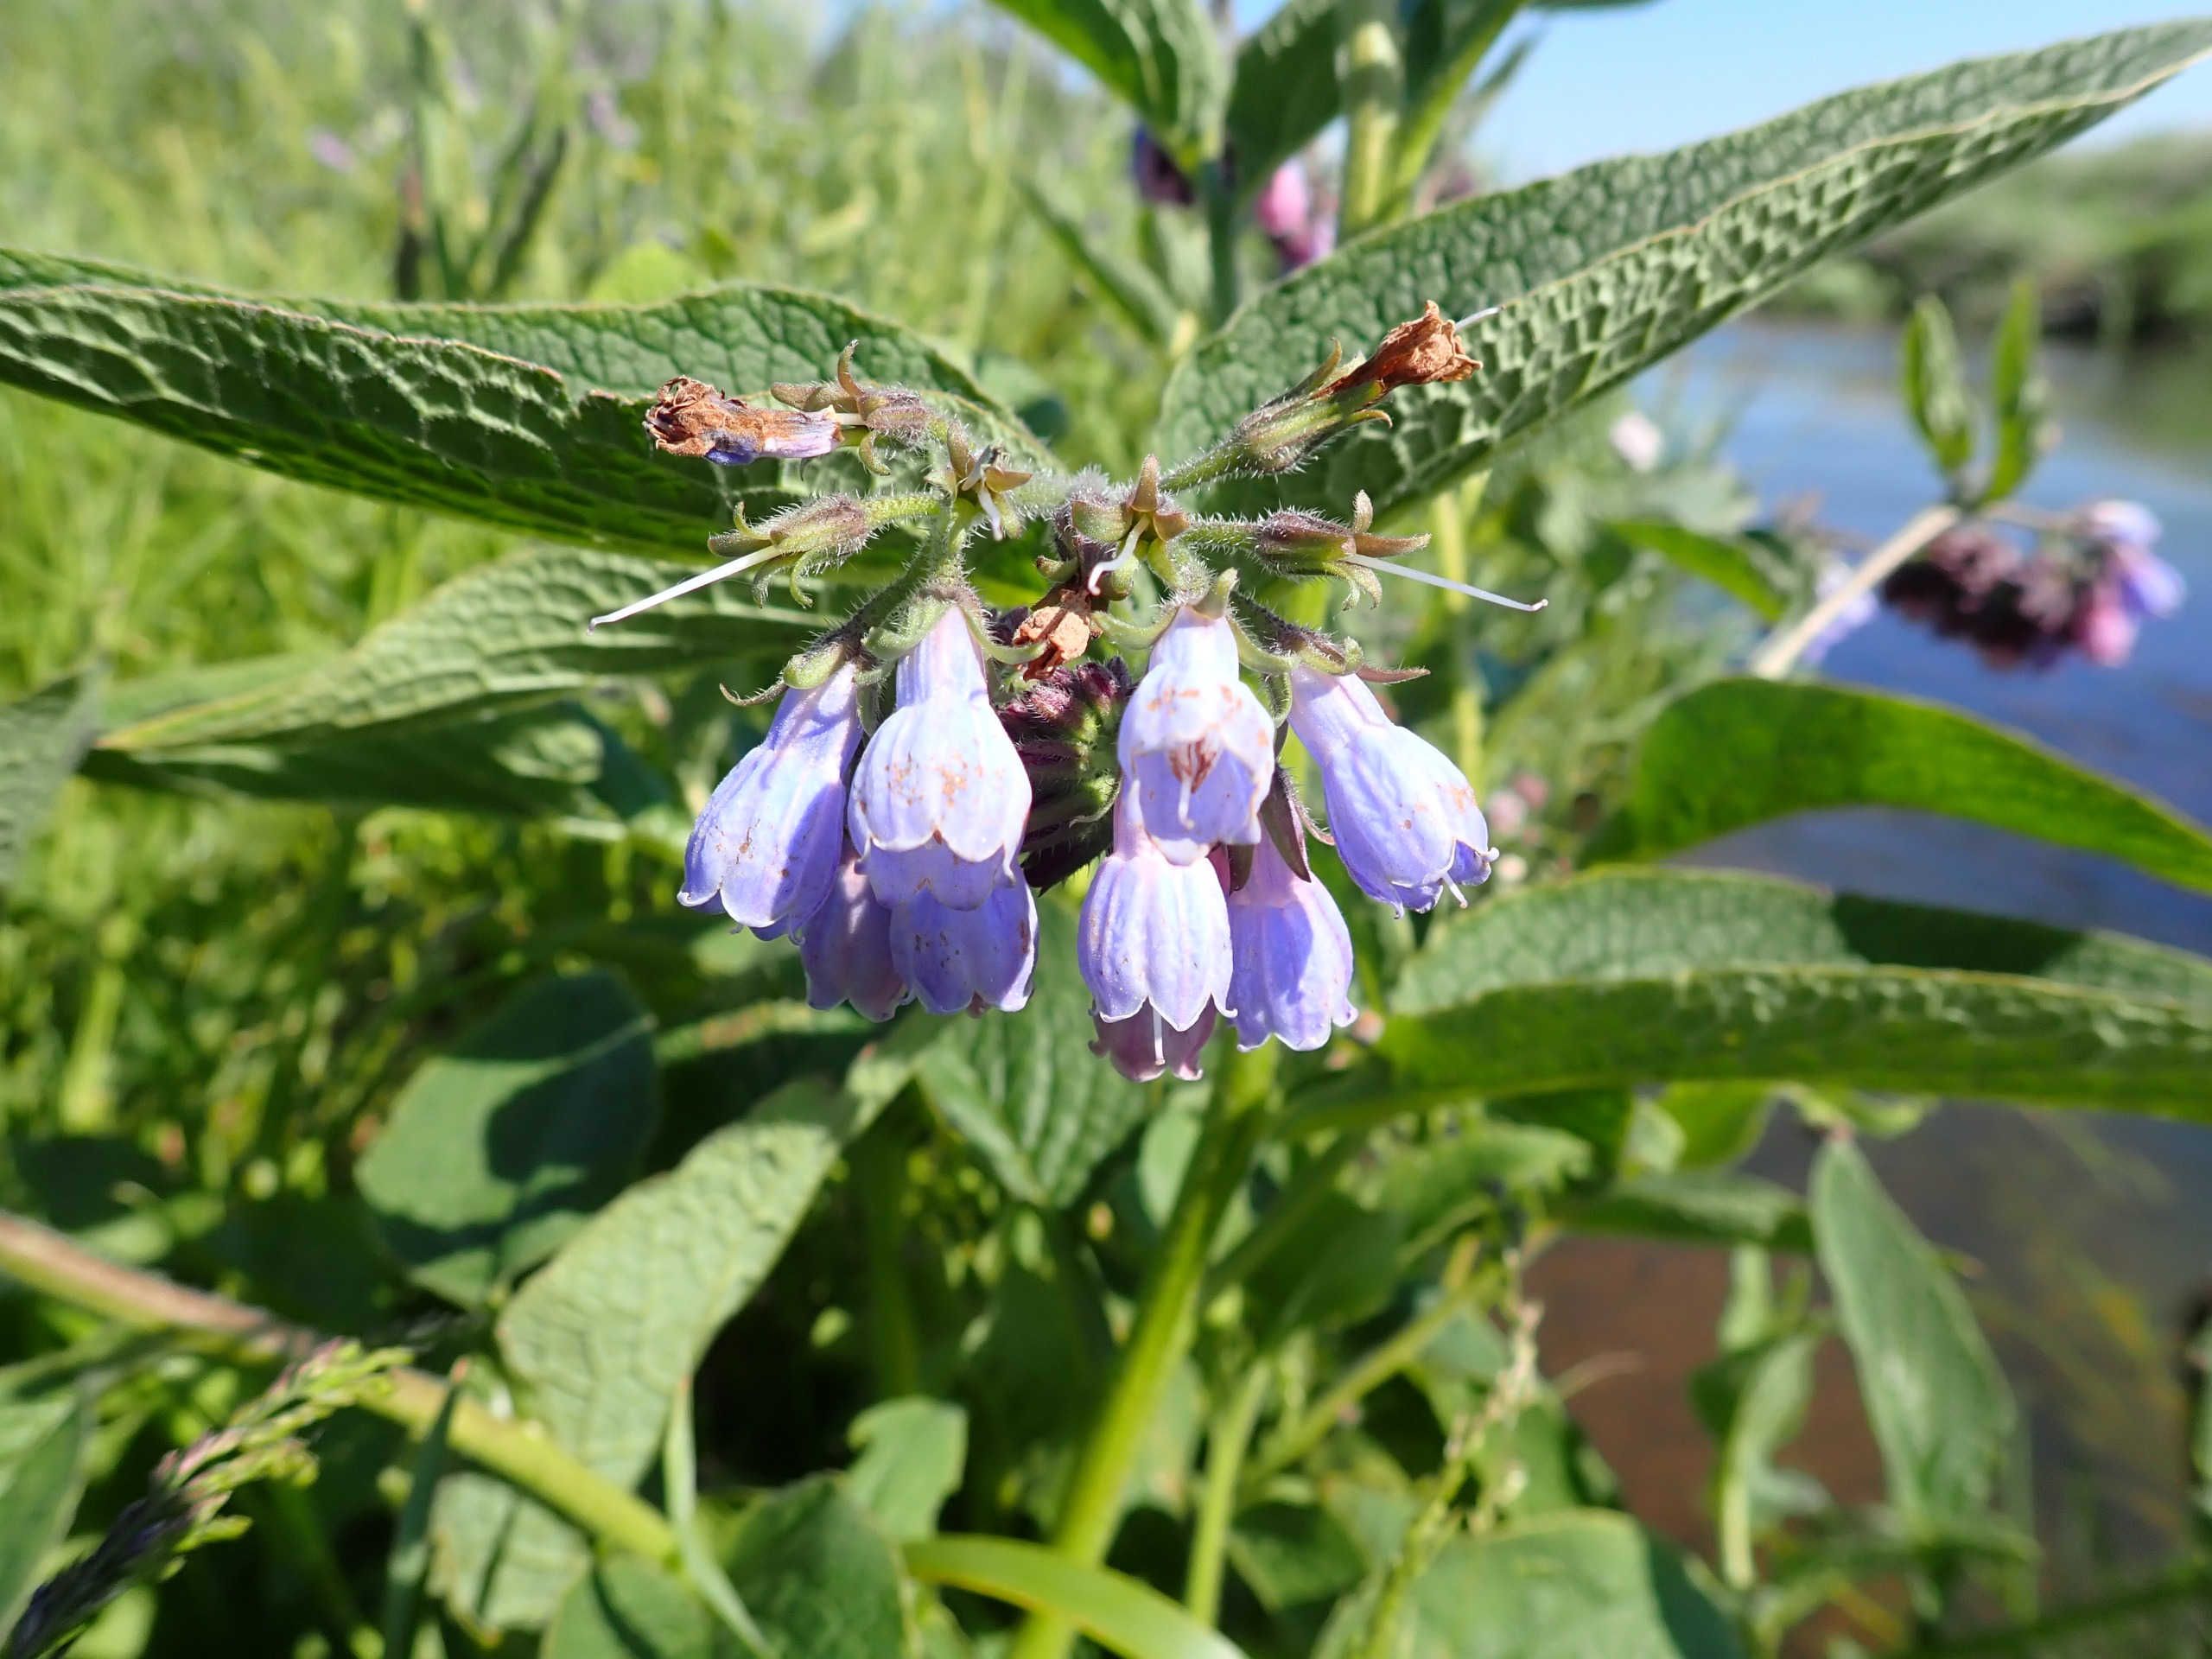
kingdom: Plantae
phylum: Tracheophyta
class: Magnoliopsida
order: Boraginales
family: Boraginaceae
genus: Symphytum
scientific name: Symphytum uplandicum
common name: Foder-kulsukker
